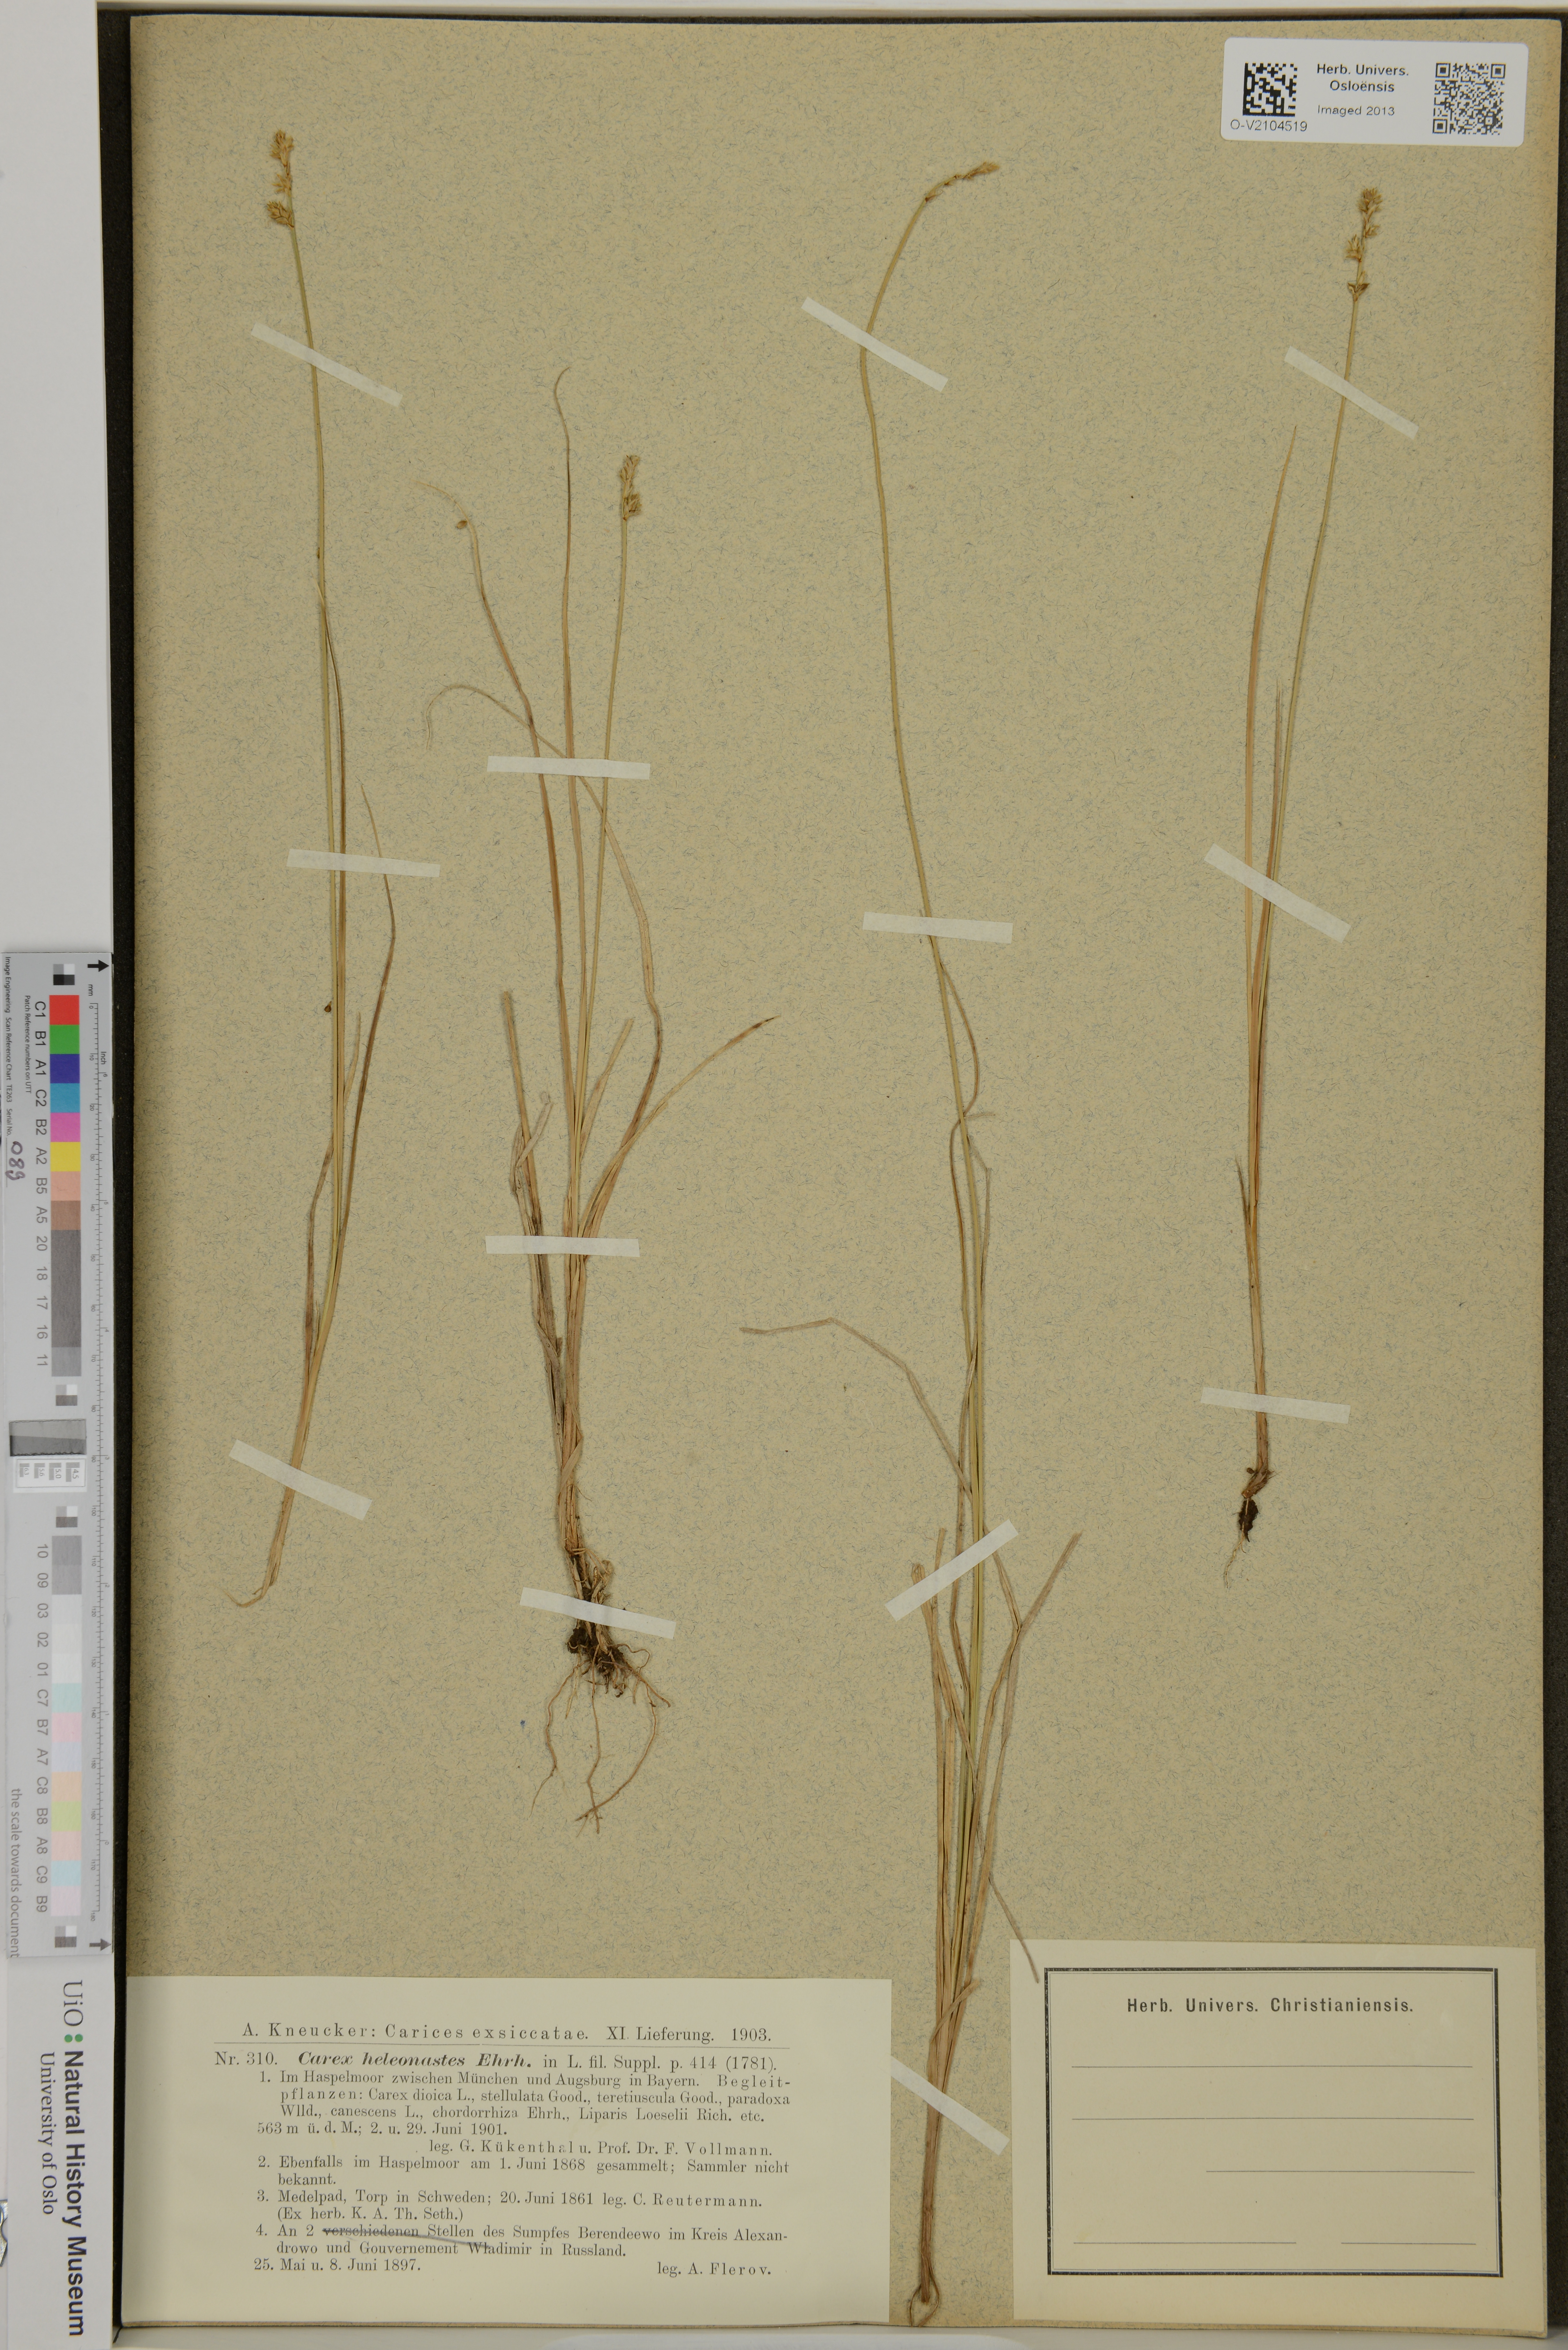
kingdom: Plantae
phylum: Tracheophyta
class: Liliopsida
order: Poales
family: Cyperaceae
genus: Carex
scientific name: Carex heleonastes
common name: Hudson bay sedge
